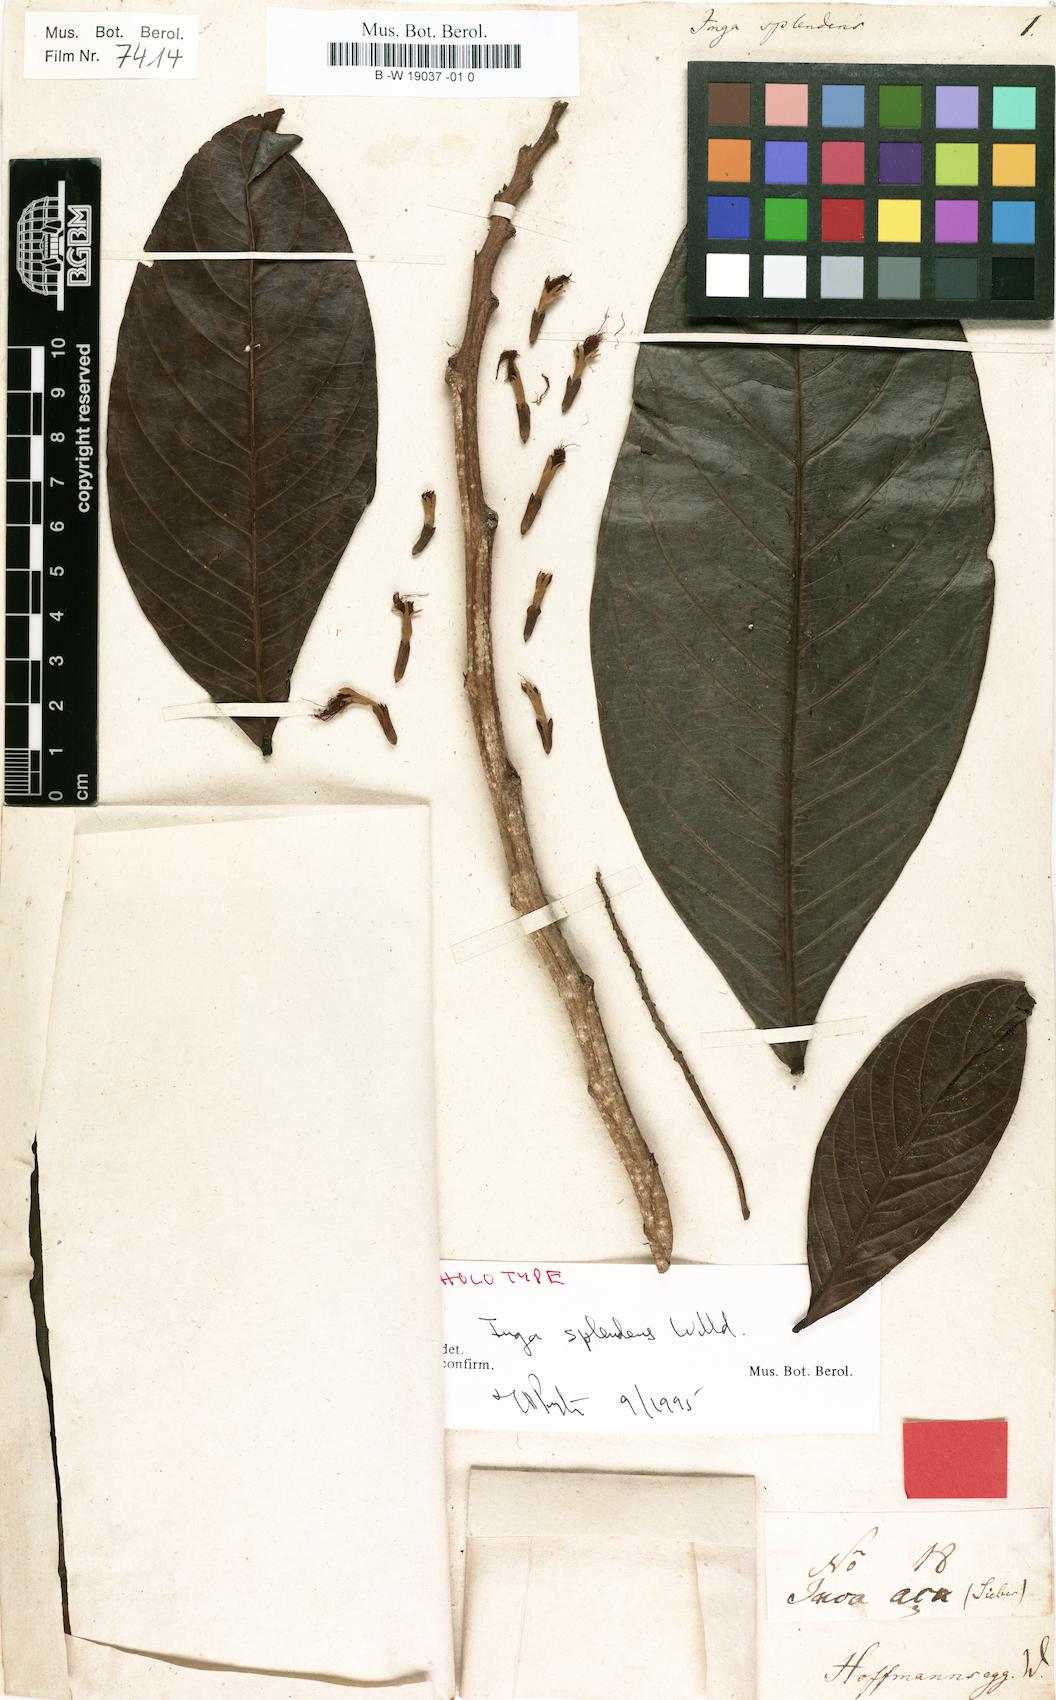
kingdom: Plantae
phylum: Tracheophyta
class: Magnoliopsida
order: Fabales
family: Fabaceae
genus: Inga
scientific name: Inga splendens
